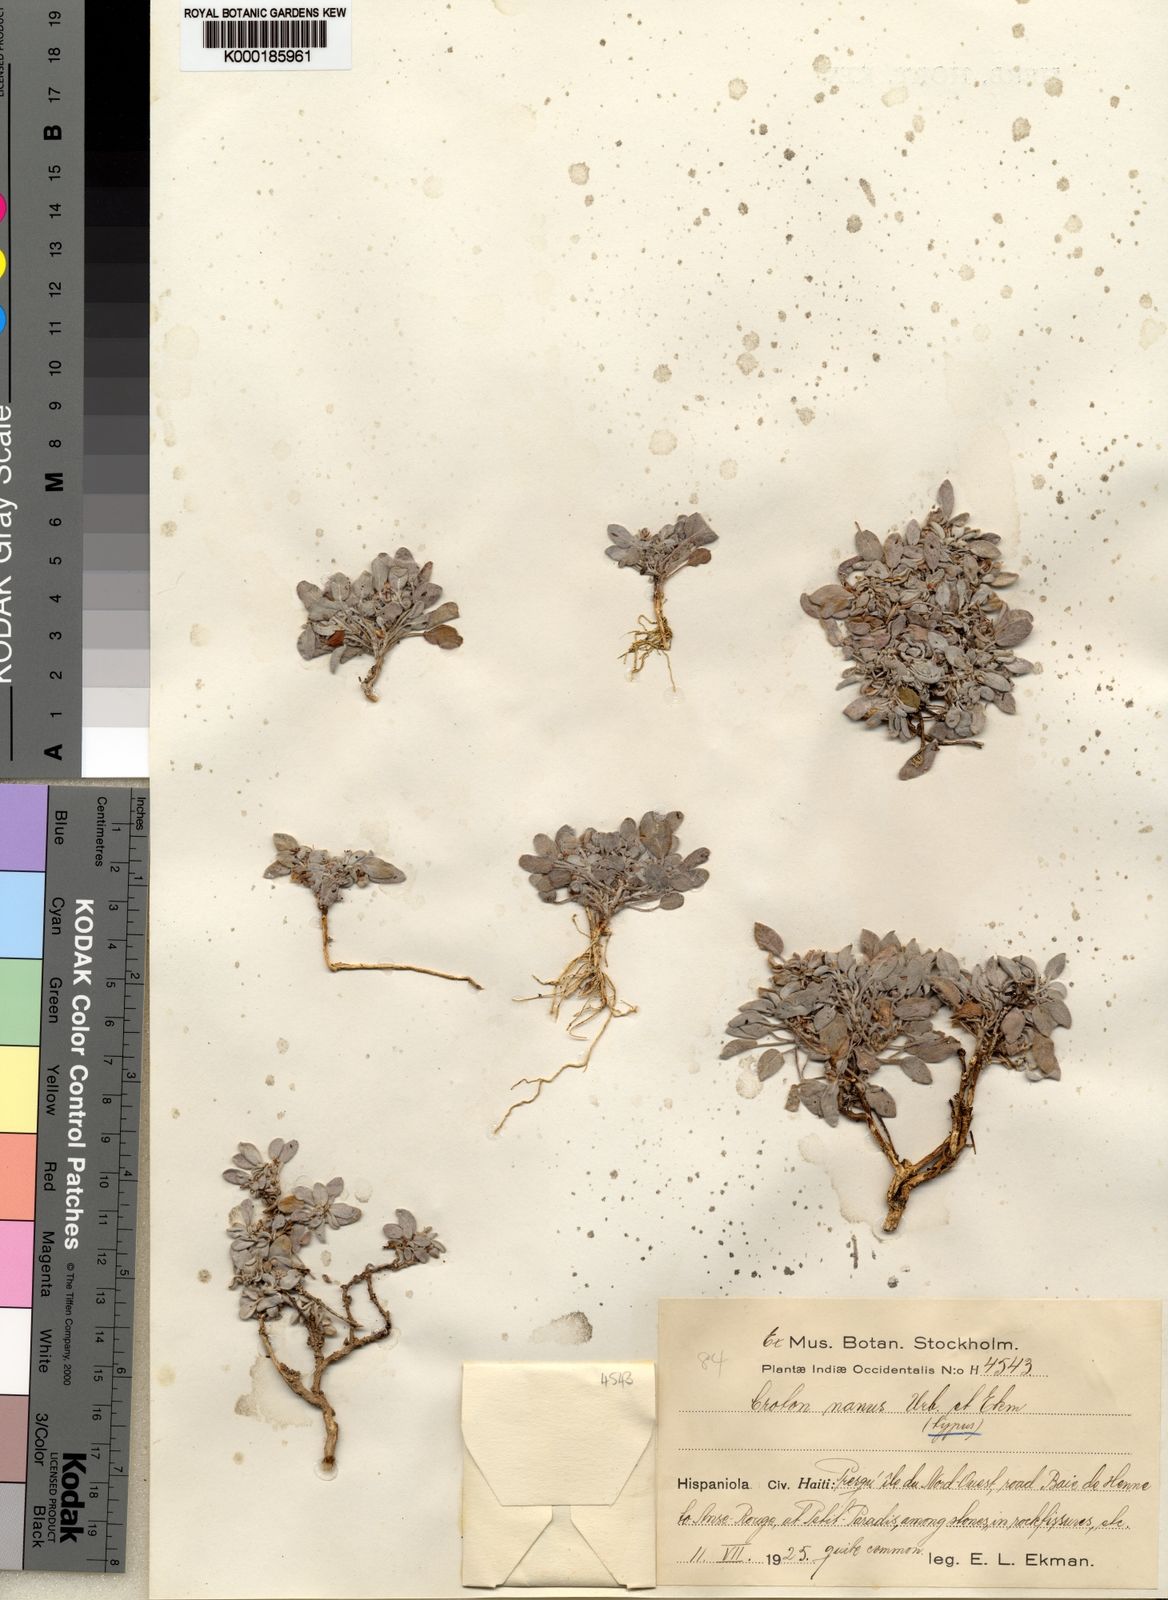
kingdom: Plantae
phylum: Tracheophyta
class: Magnoliopsida
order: Malpighiales
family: Euphorbiaceae
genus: Croton
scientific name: Croton haitiensis
